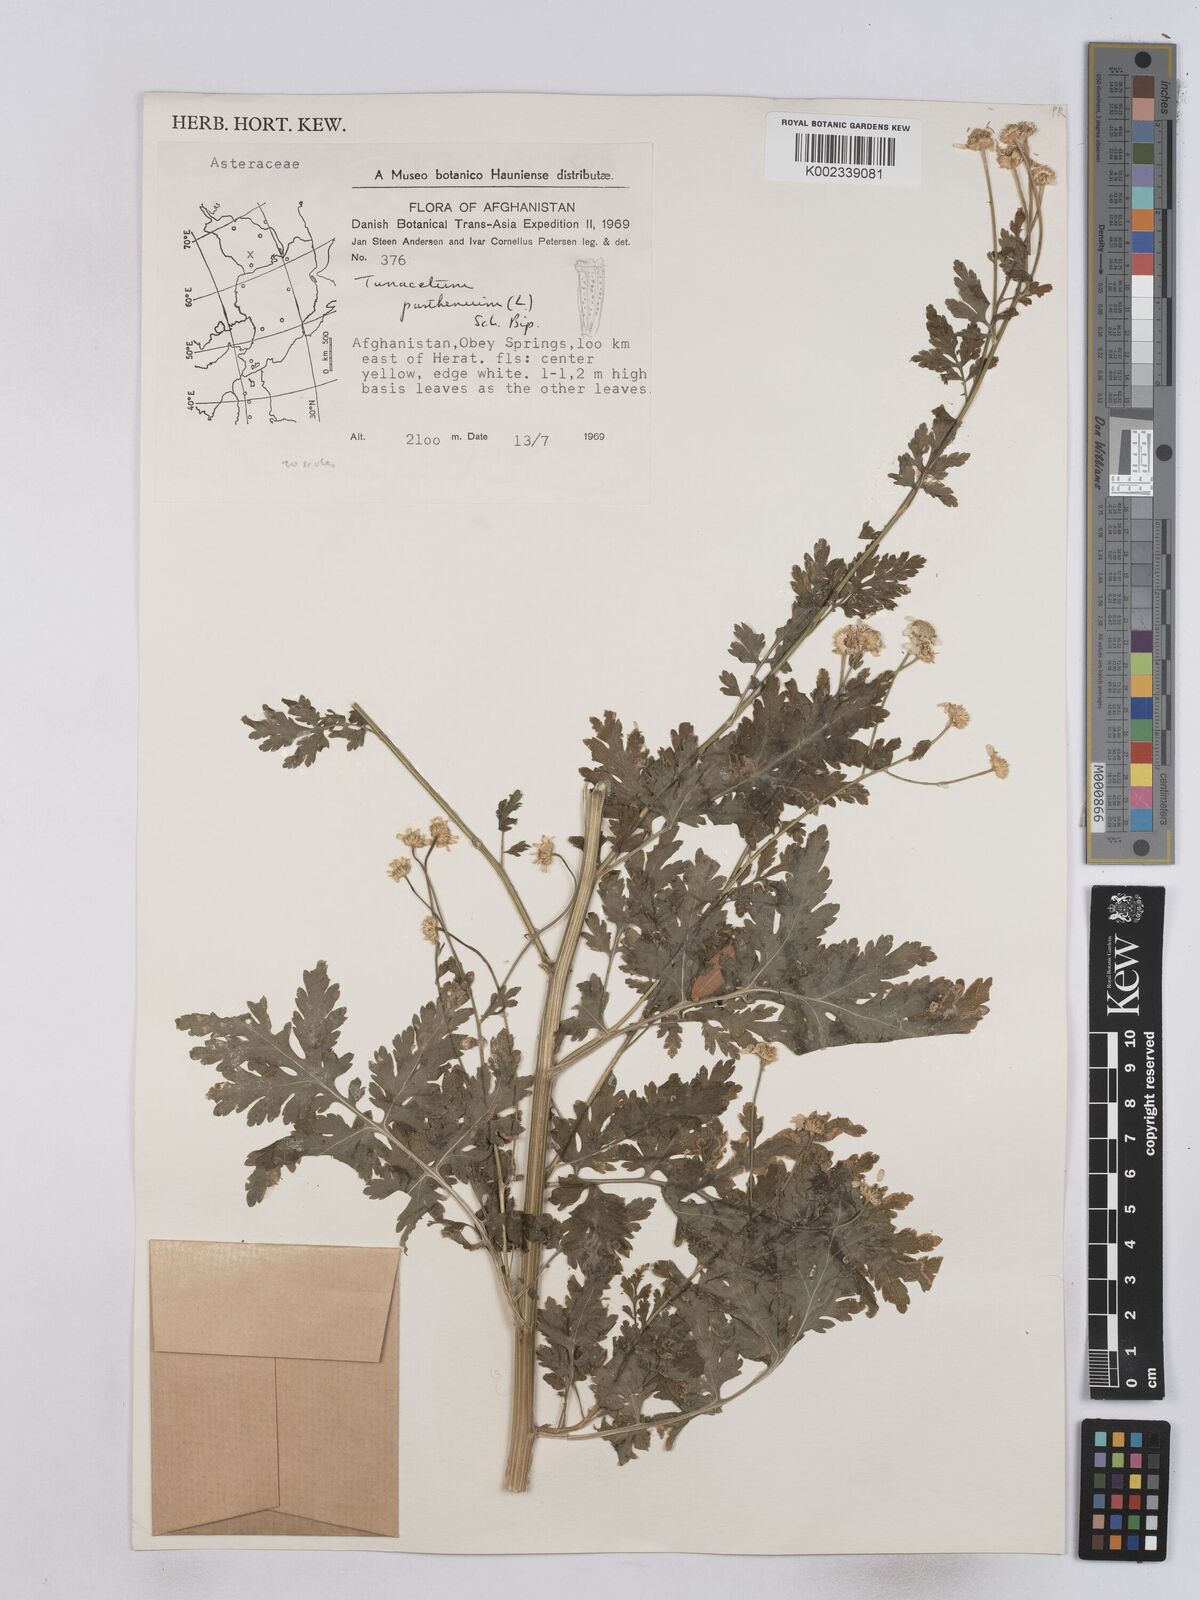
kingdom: Plantae
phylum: Tracheophyta
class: Magnoliopsida
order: Asterales
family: Asteraceae
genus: Tanacetum
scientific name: Tanacetum parthenium
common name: Feverfew
